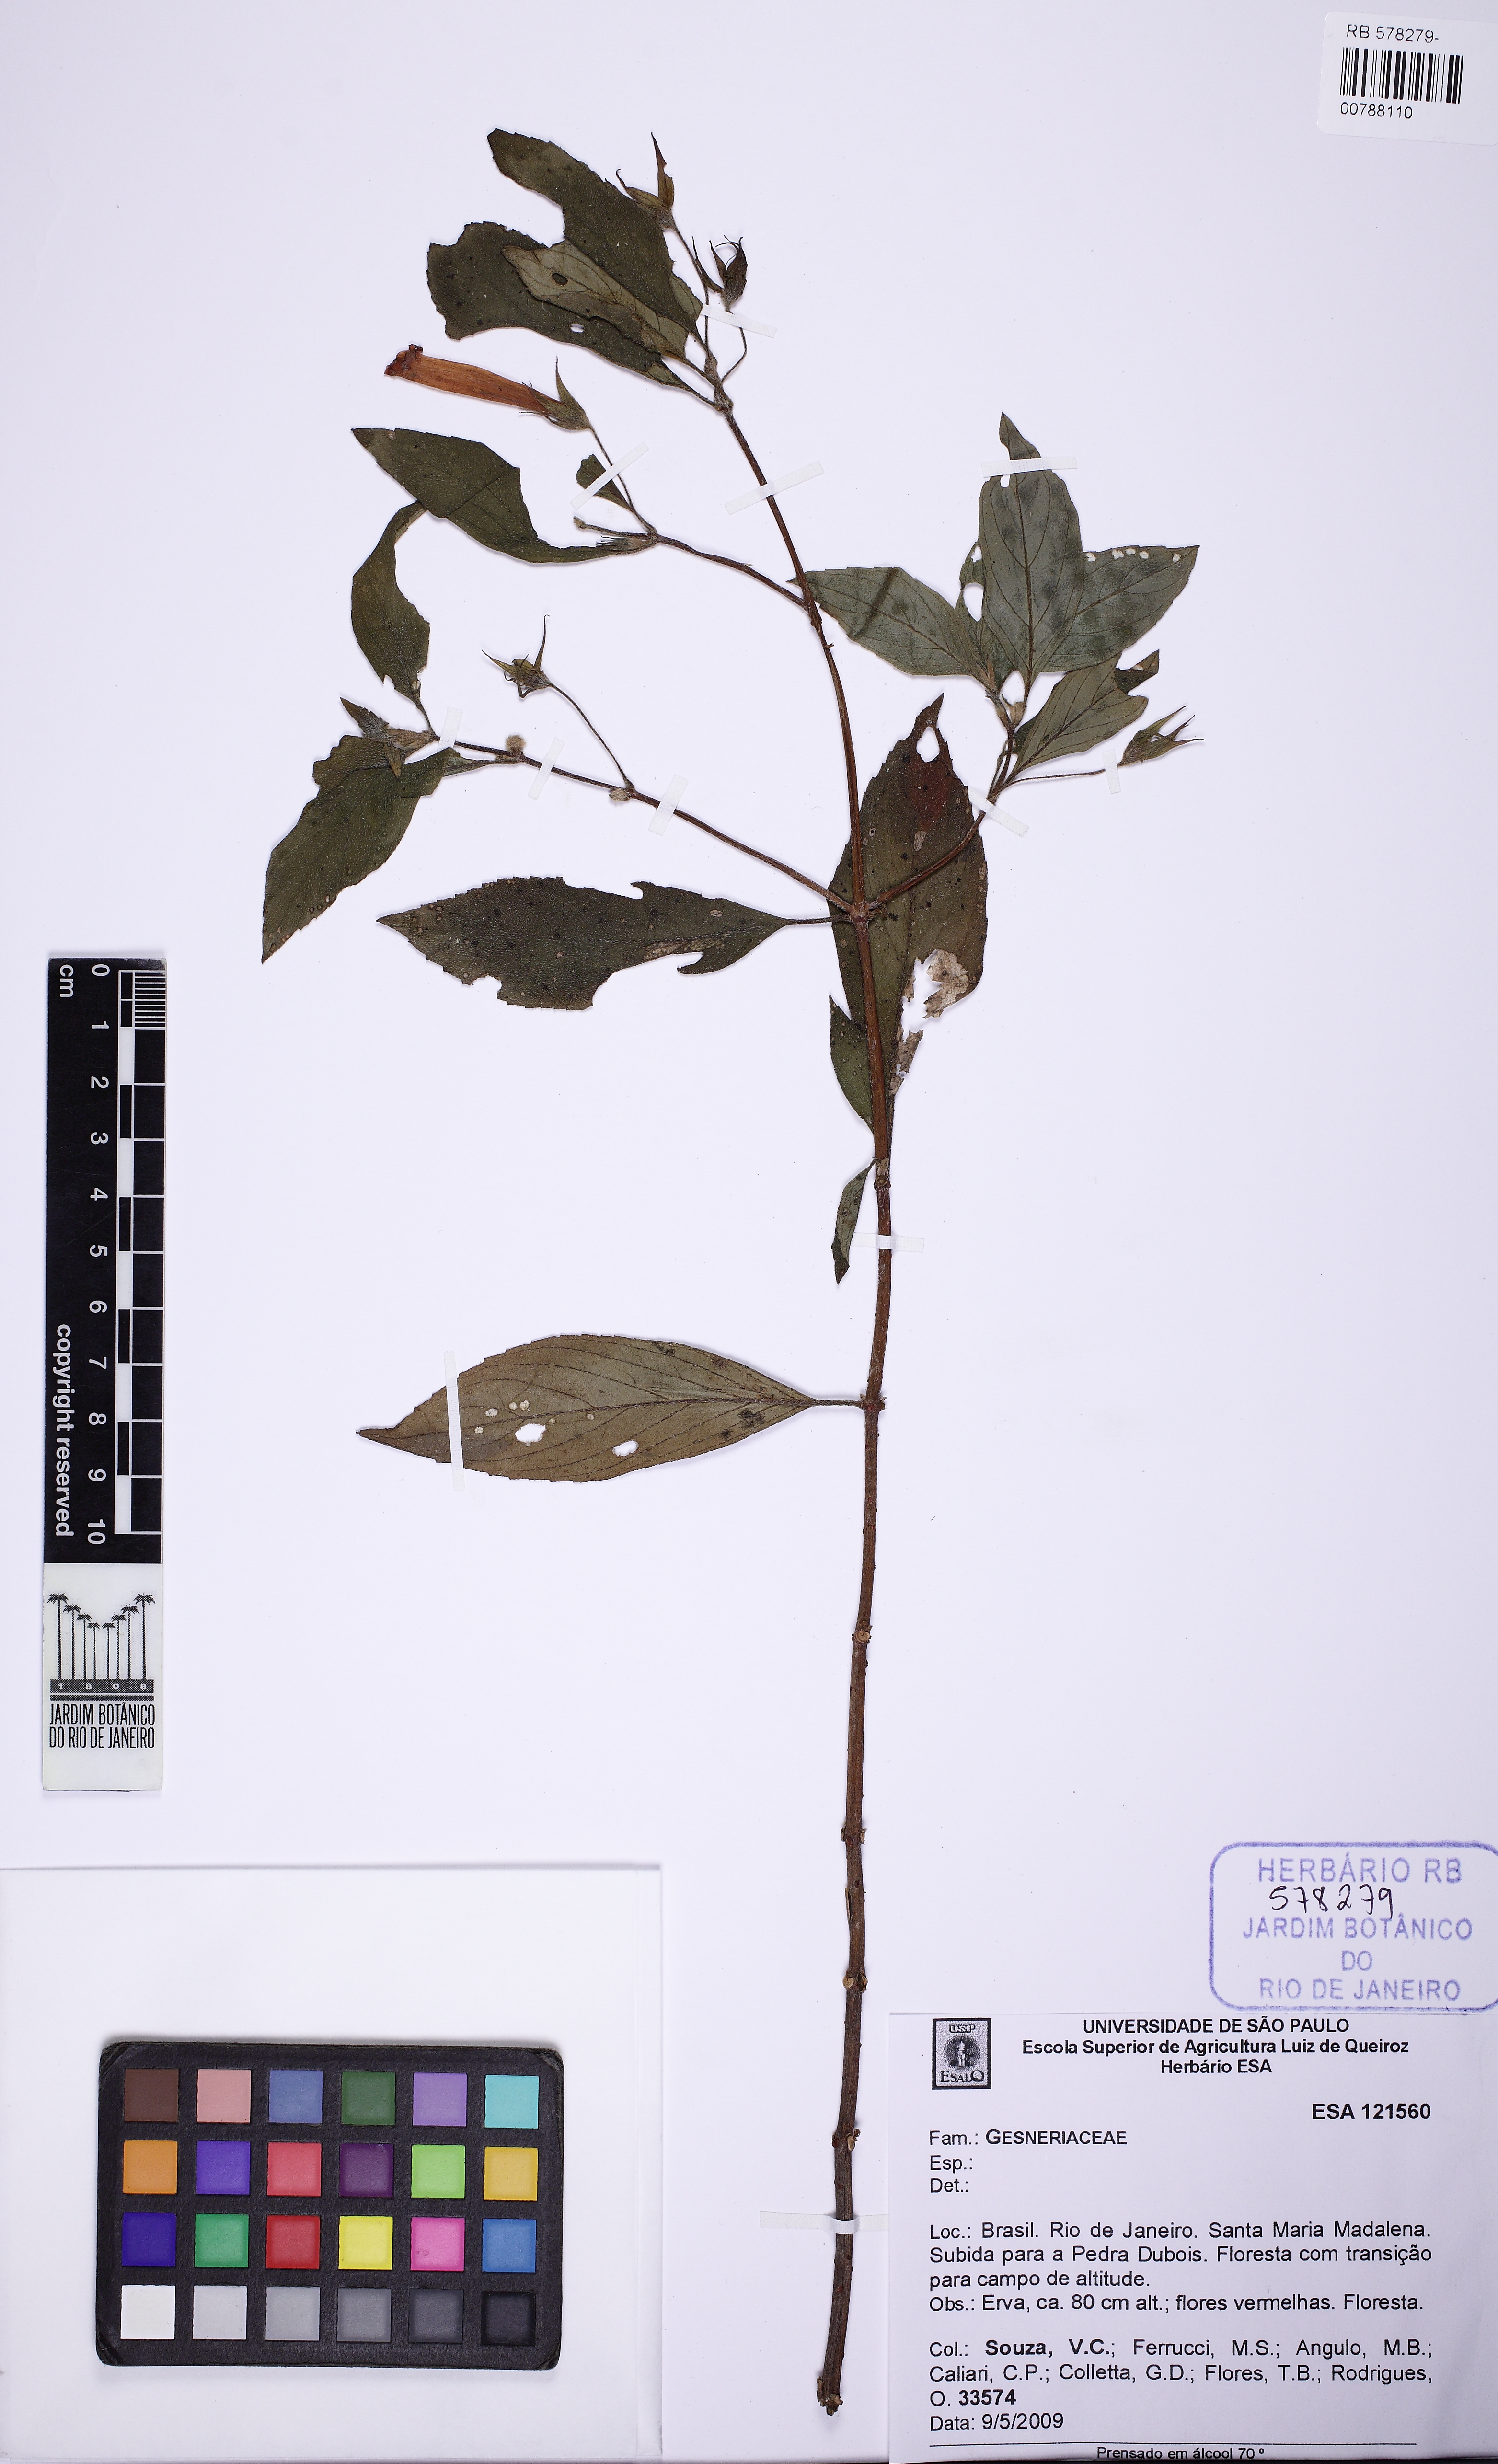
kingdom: Plantae
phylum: Tracheophyta
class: Magnoliopsida
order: Lamiales
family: Gesneriaceae
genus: Vanhouttea
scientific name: Vanhouttea
